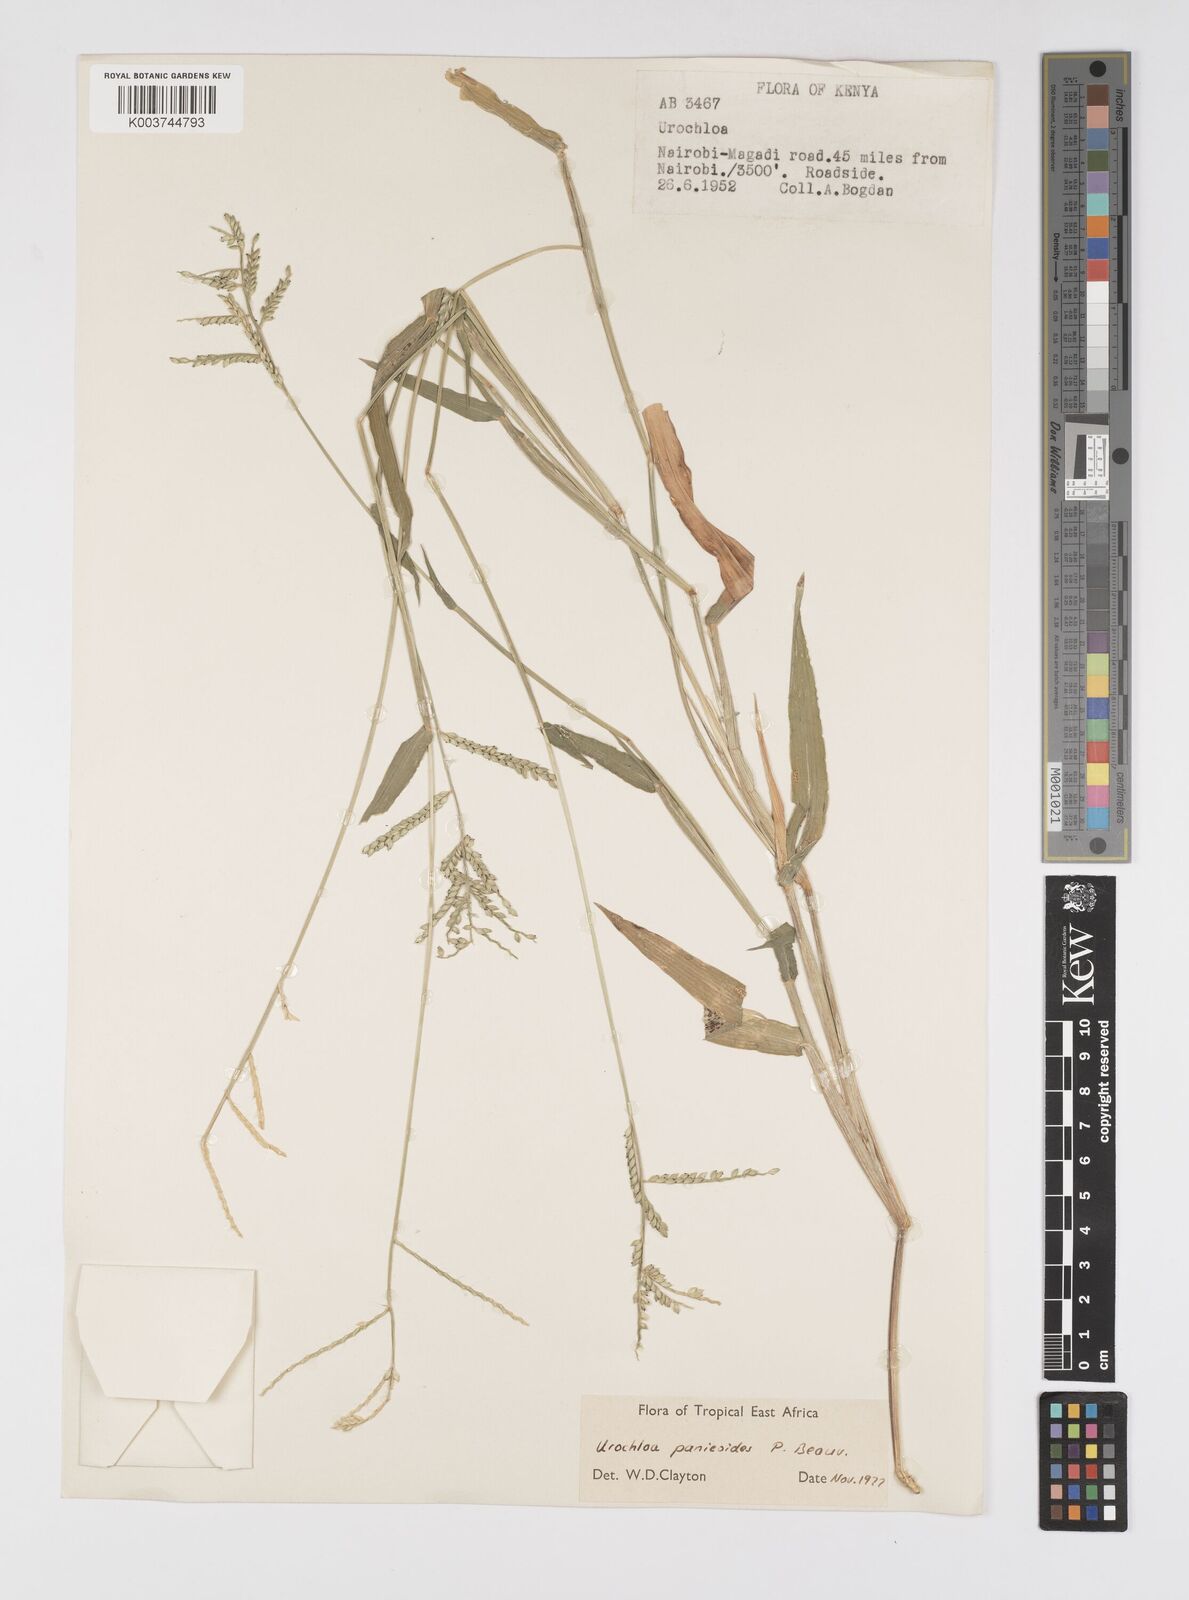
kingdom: Plantae
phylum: Tracheophyta
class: Liliopsida
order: Poales
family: Poaceae
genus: Urochloa
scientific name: Urochloa panicoides
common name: Sharp-flowered signal-grass
